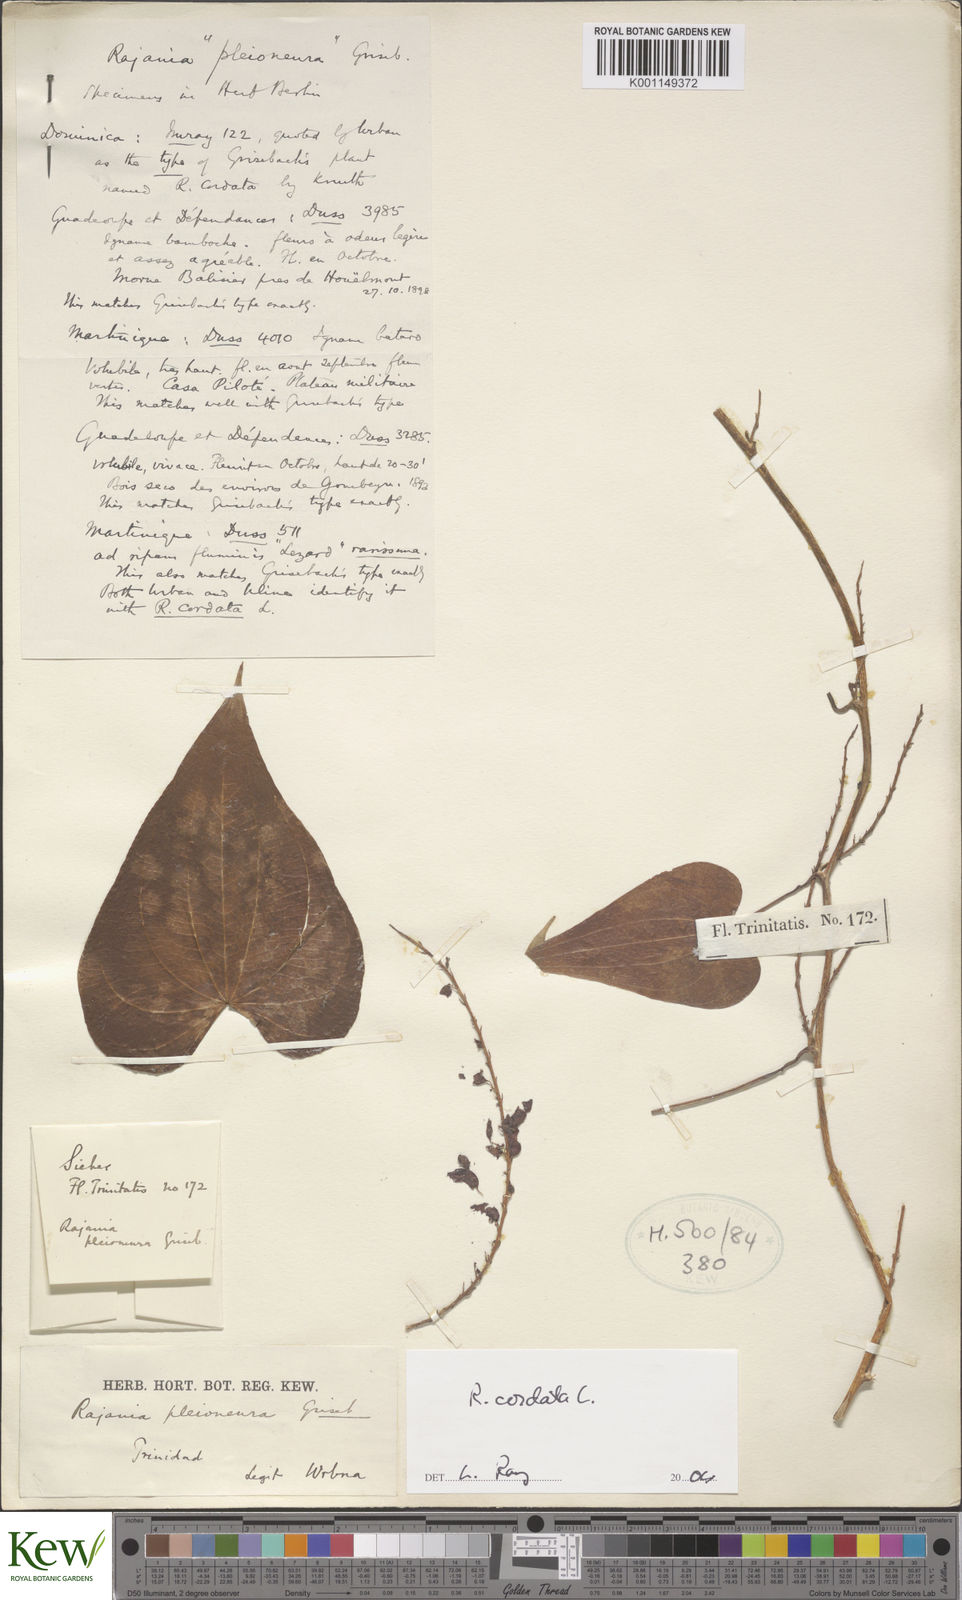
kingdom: Plantae
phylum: Tracheophyta
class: Liliopsida
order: Dioscoreales
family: Dioscoreaceae
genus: Dioscorea
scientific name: Dioscorea
